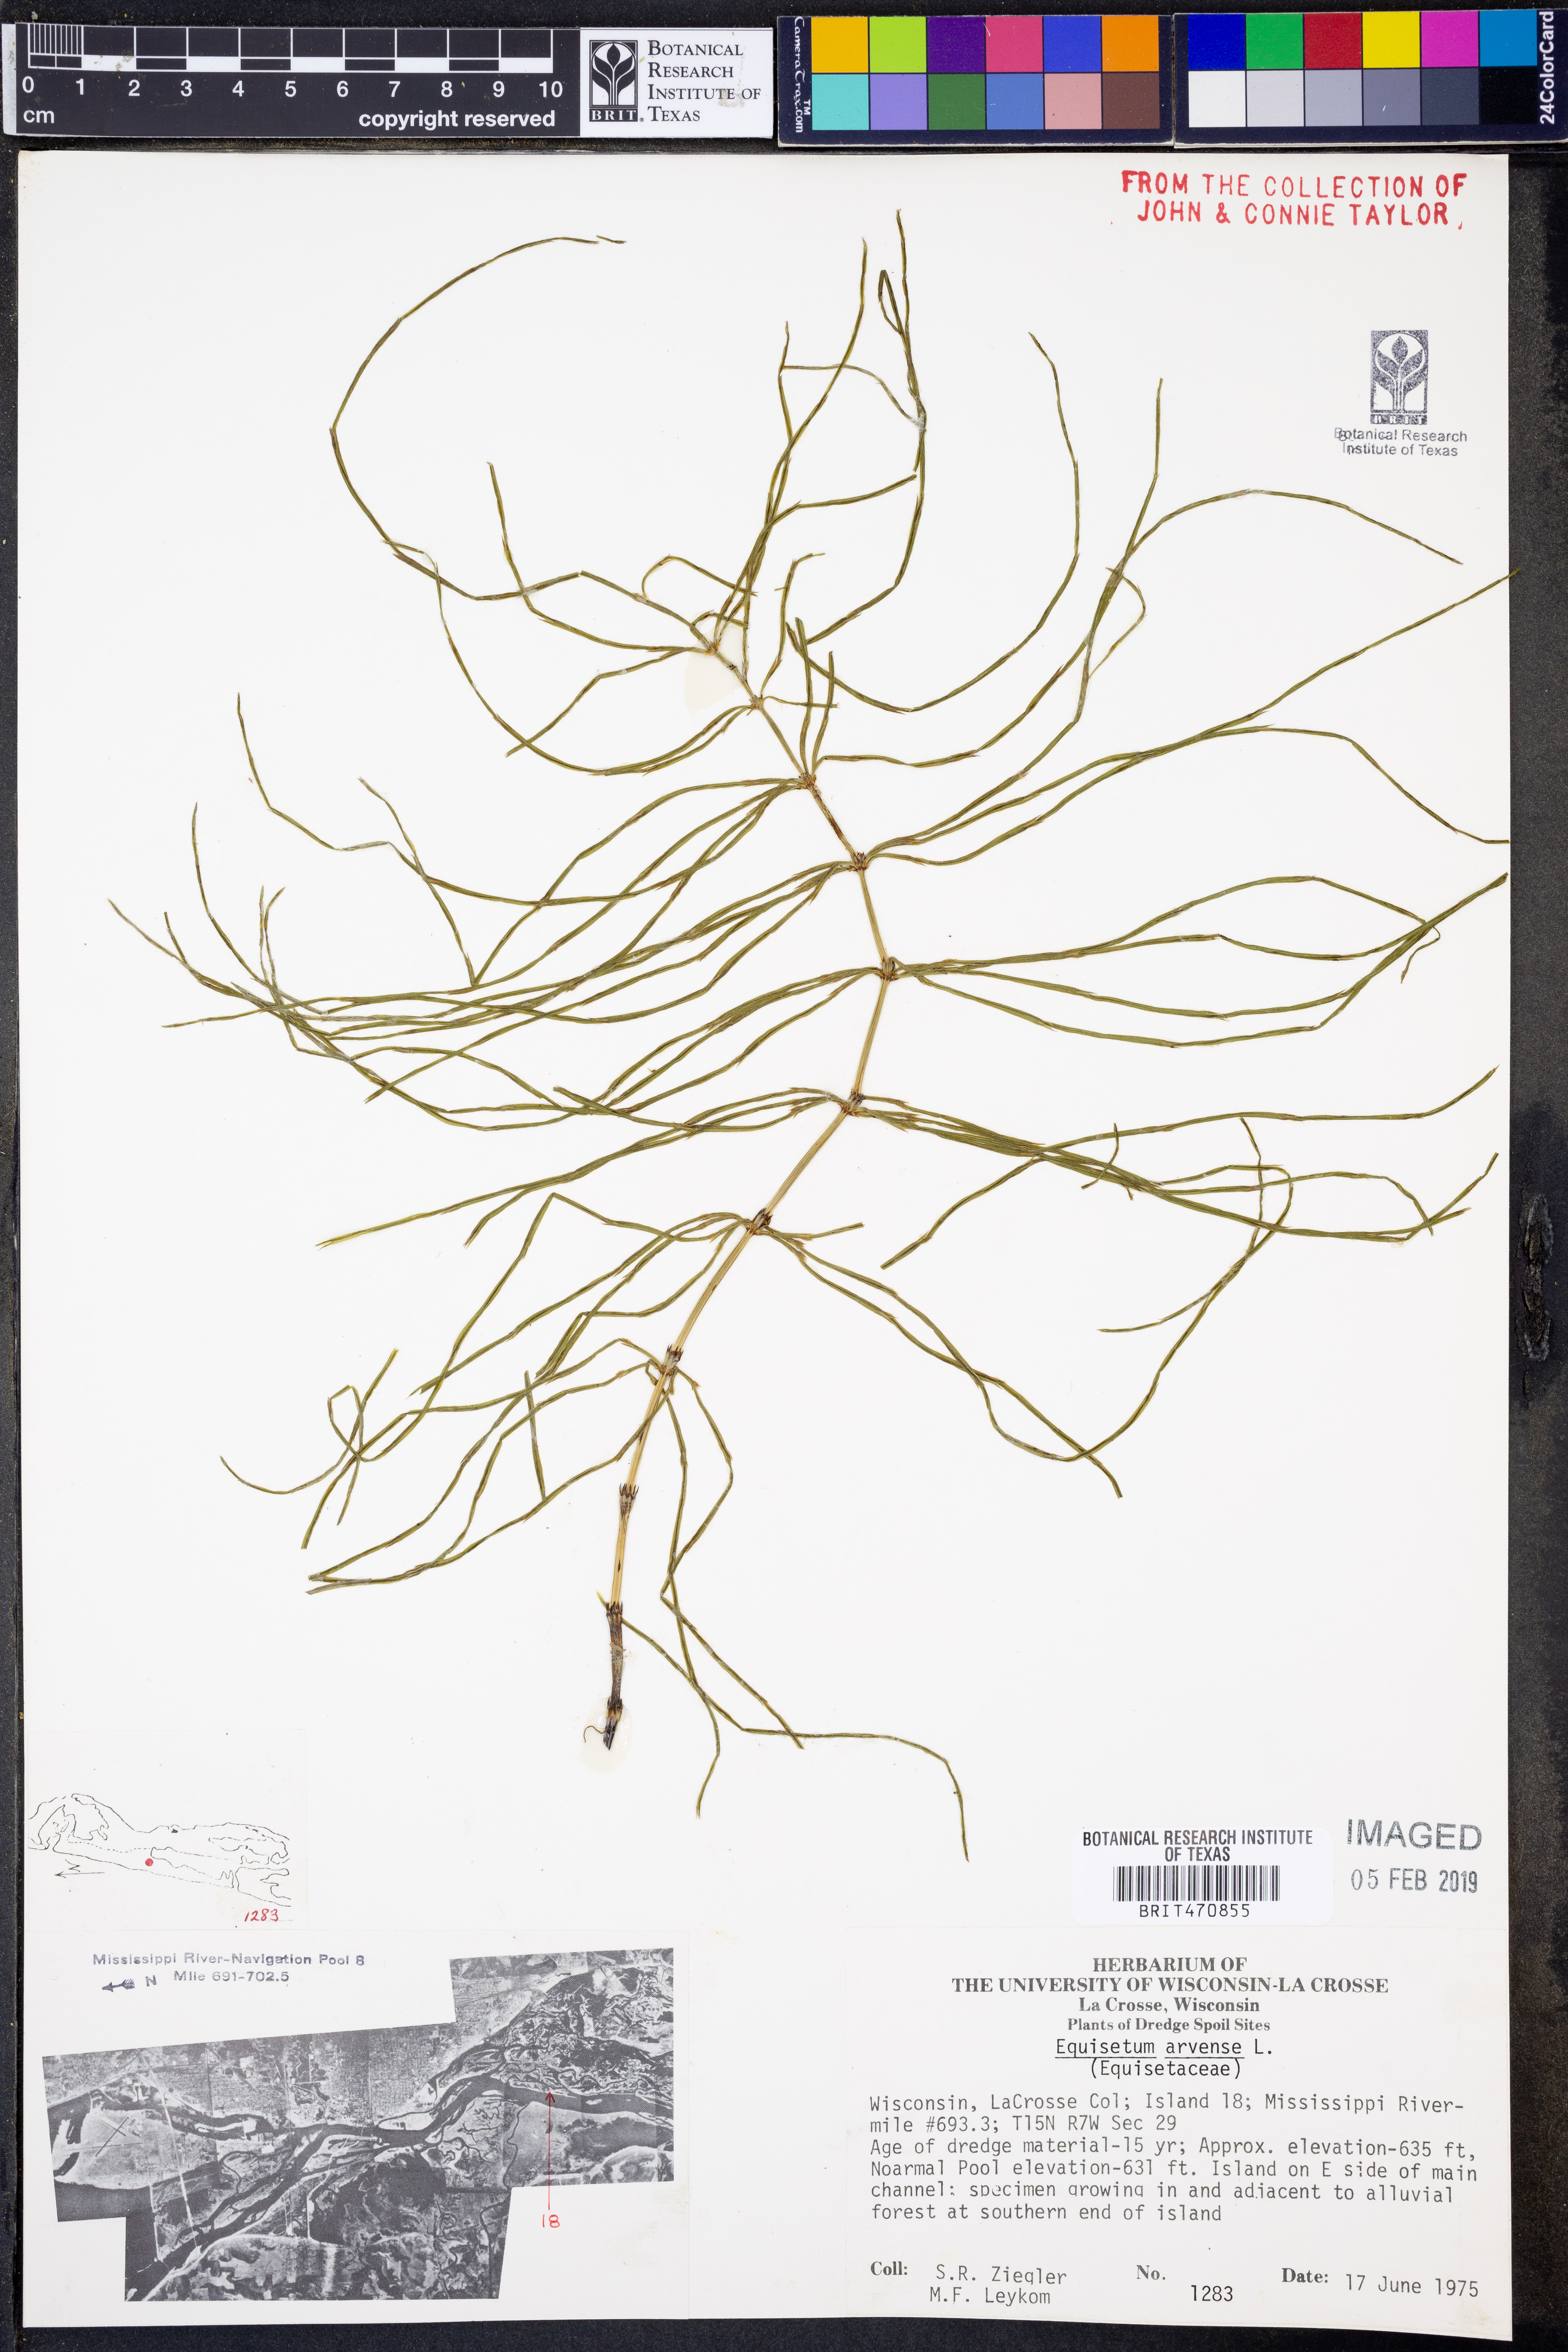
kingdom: Plantae
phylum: Tracheophyta
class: Polypodiopsida
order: Equisetales
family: Equisetaceae
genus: Equisetum
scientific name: Equisetum arvense
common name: Field horsetail
